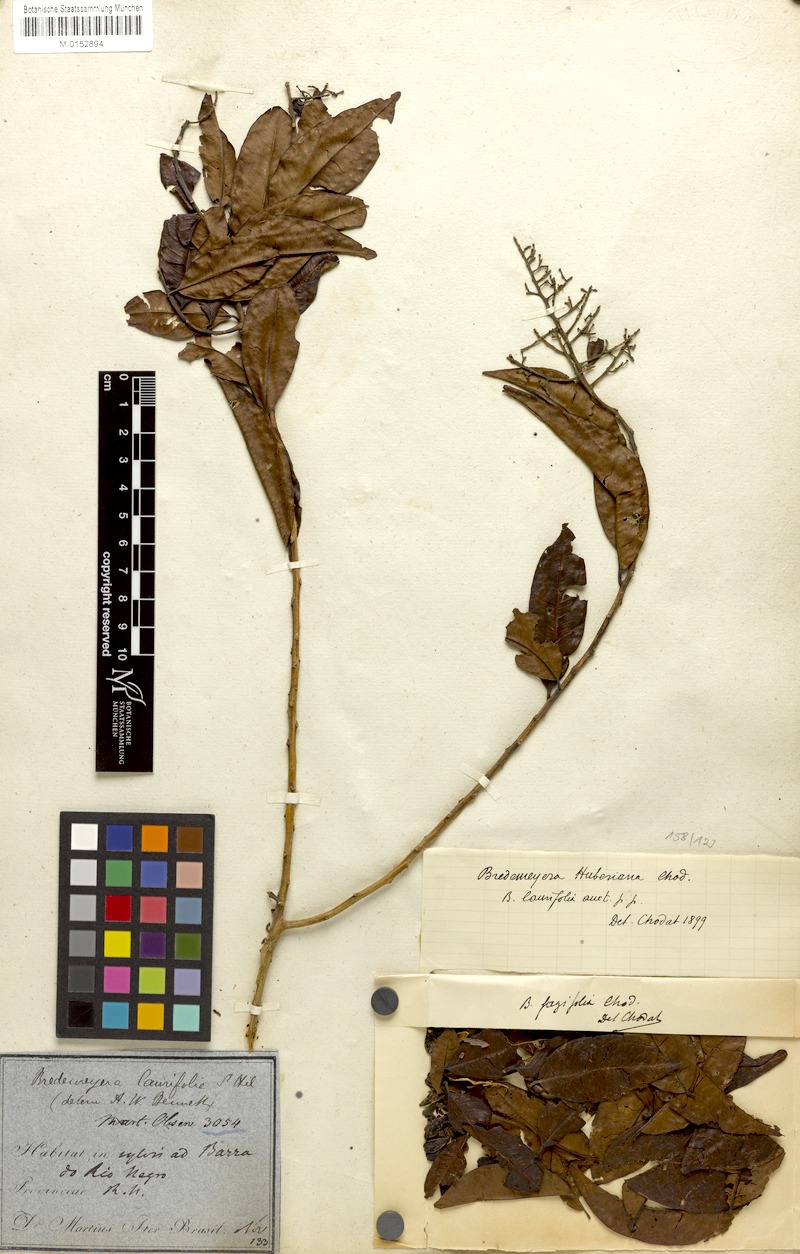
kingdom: Plantae
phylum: Tracheophyta
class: Magnoliopsida
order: Fabales
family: Polygalaceae
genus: Bredemeyera
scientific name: Bredemeyera myrtifolia
